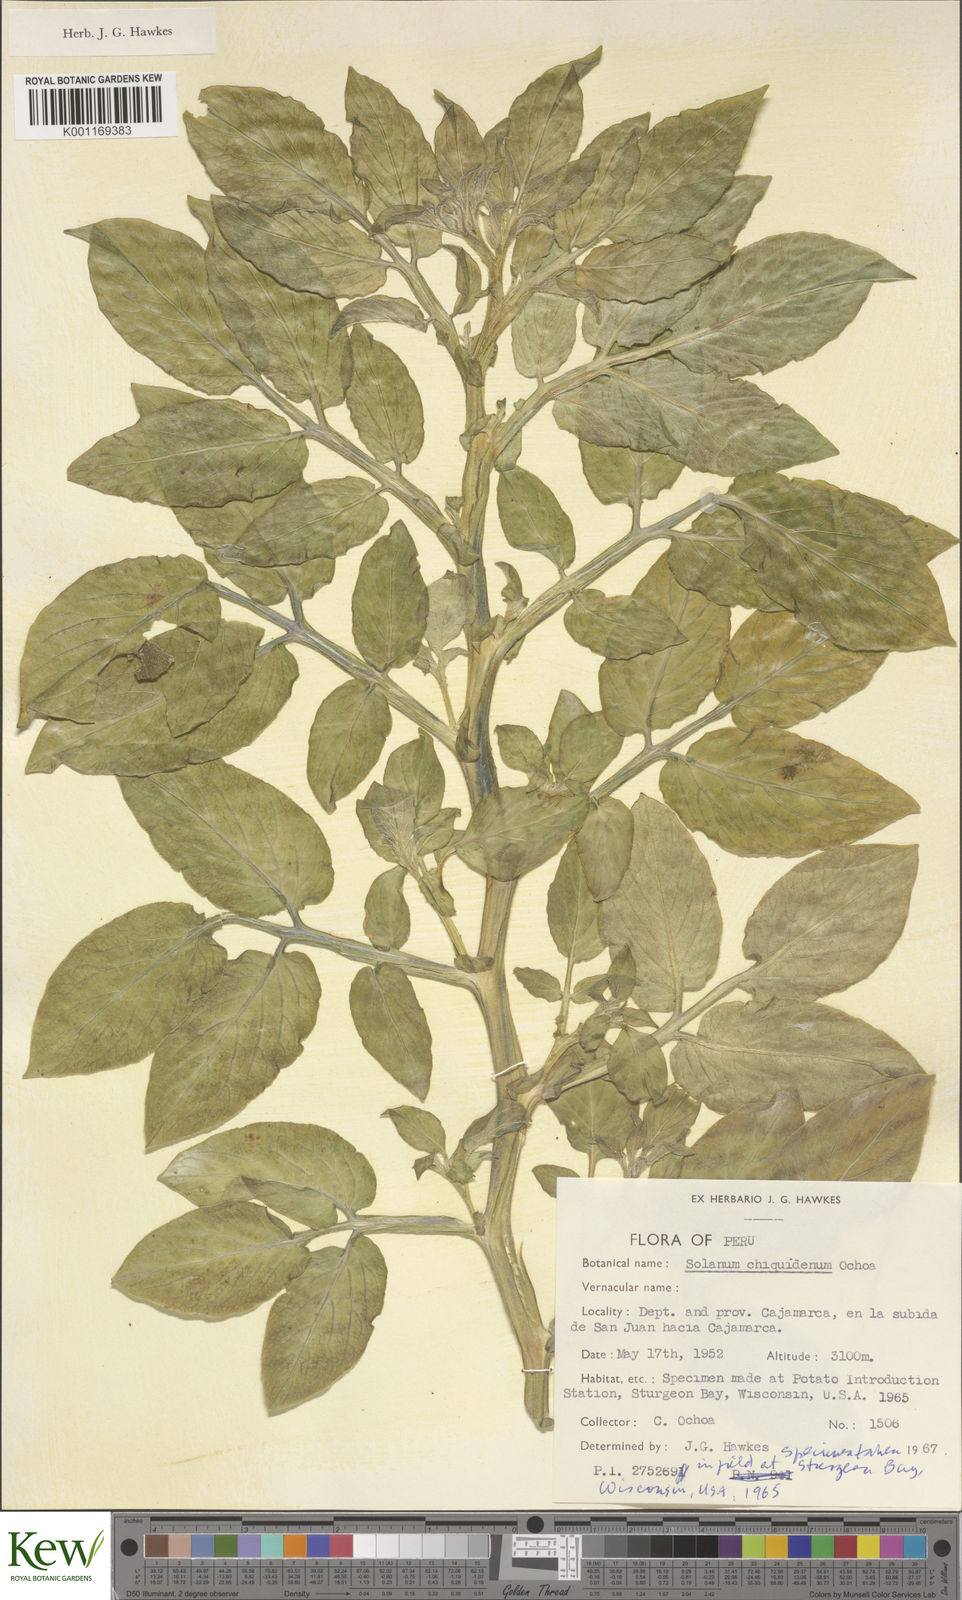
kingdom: Plantae
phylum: Tracheophyta
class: Magnoliopsida
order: Solanales
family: Solanaceae
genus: Solanum
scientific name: Solanum chiquidenum
